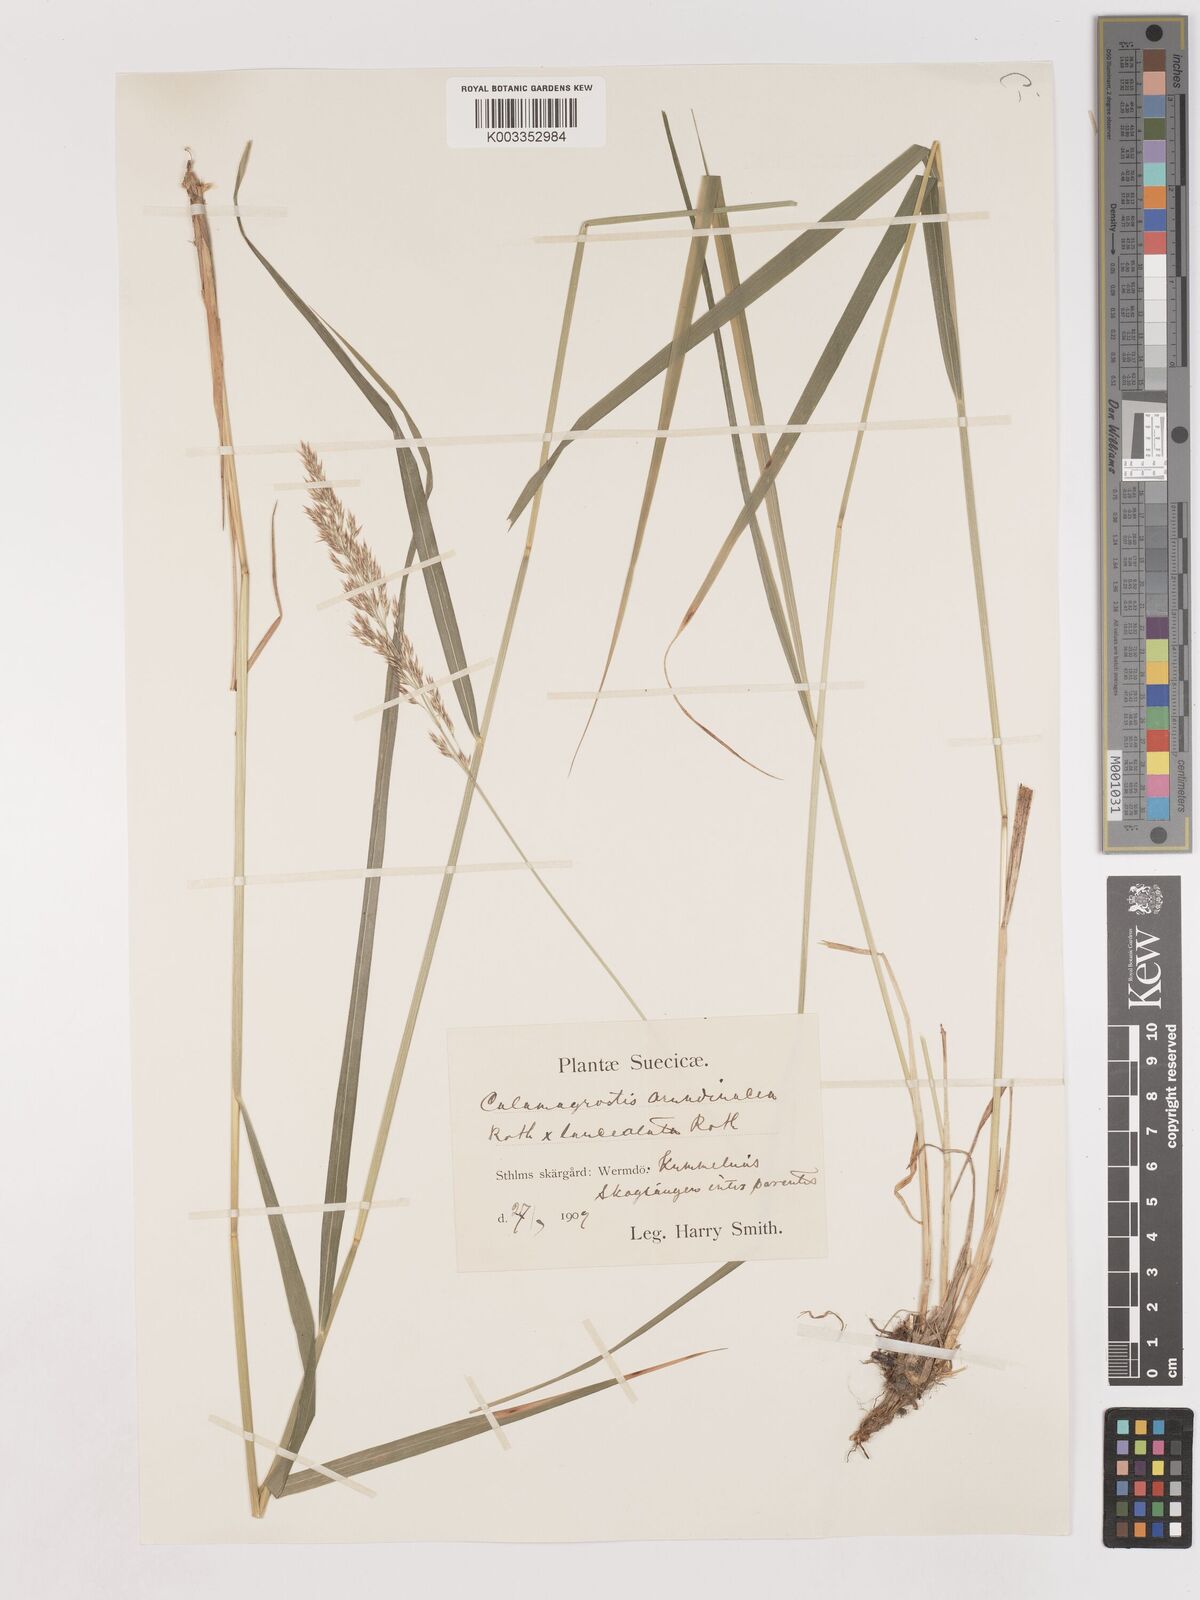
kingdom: Plantae
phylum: Tracheophyta
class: Liliopsida
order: Poales
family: Poaceae
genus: Calamagrostis
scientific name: Calamagrostis canescens
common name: Purple small-reed
